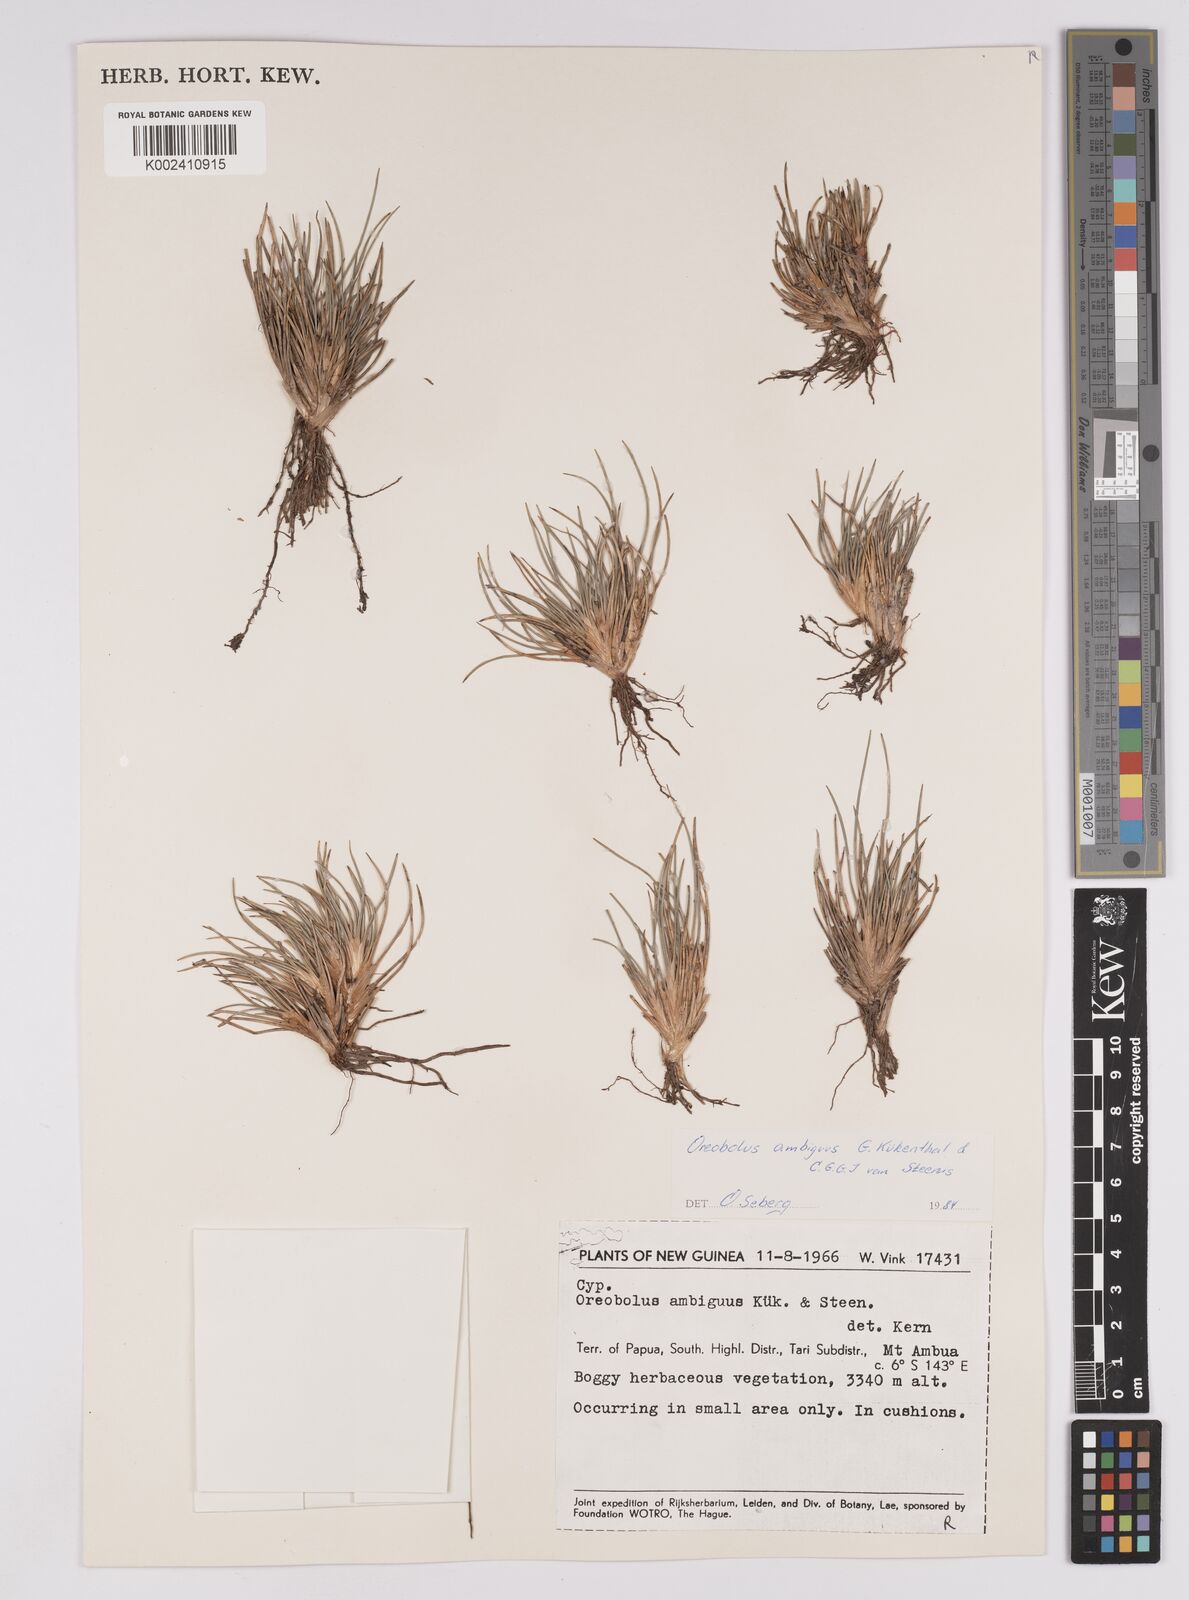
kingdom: Plantae
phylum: Tracheophyta
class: Liliopsida
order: Poales
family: Cyperaceae
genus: Oreobolus
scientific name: Oreobolus ambiguus
